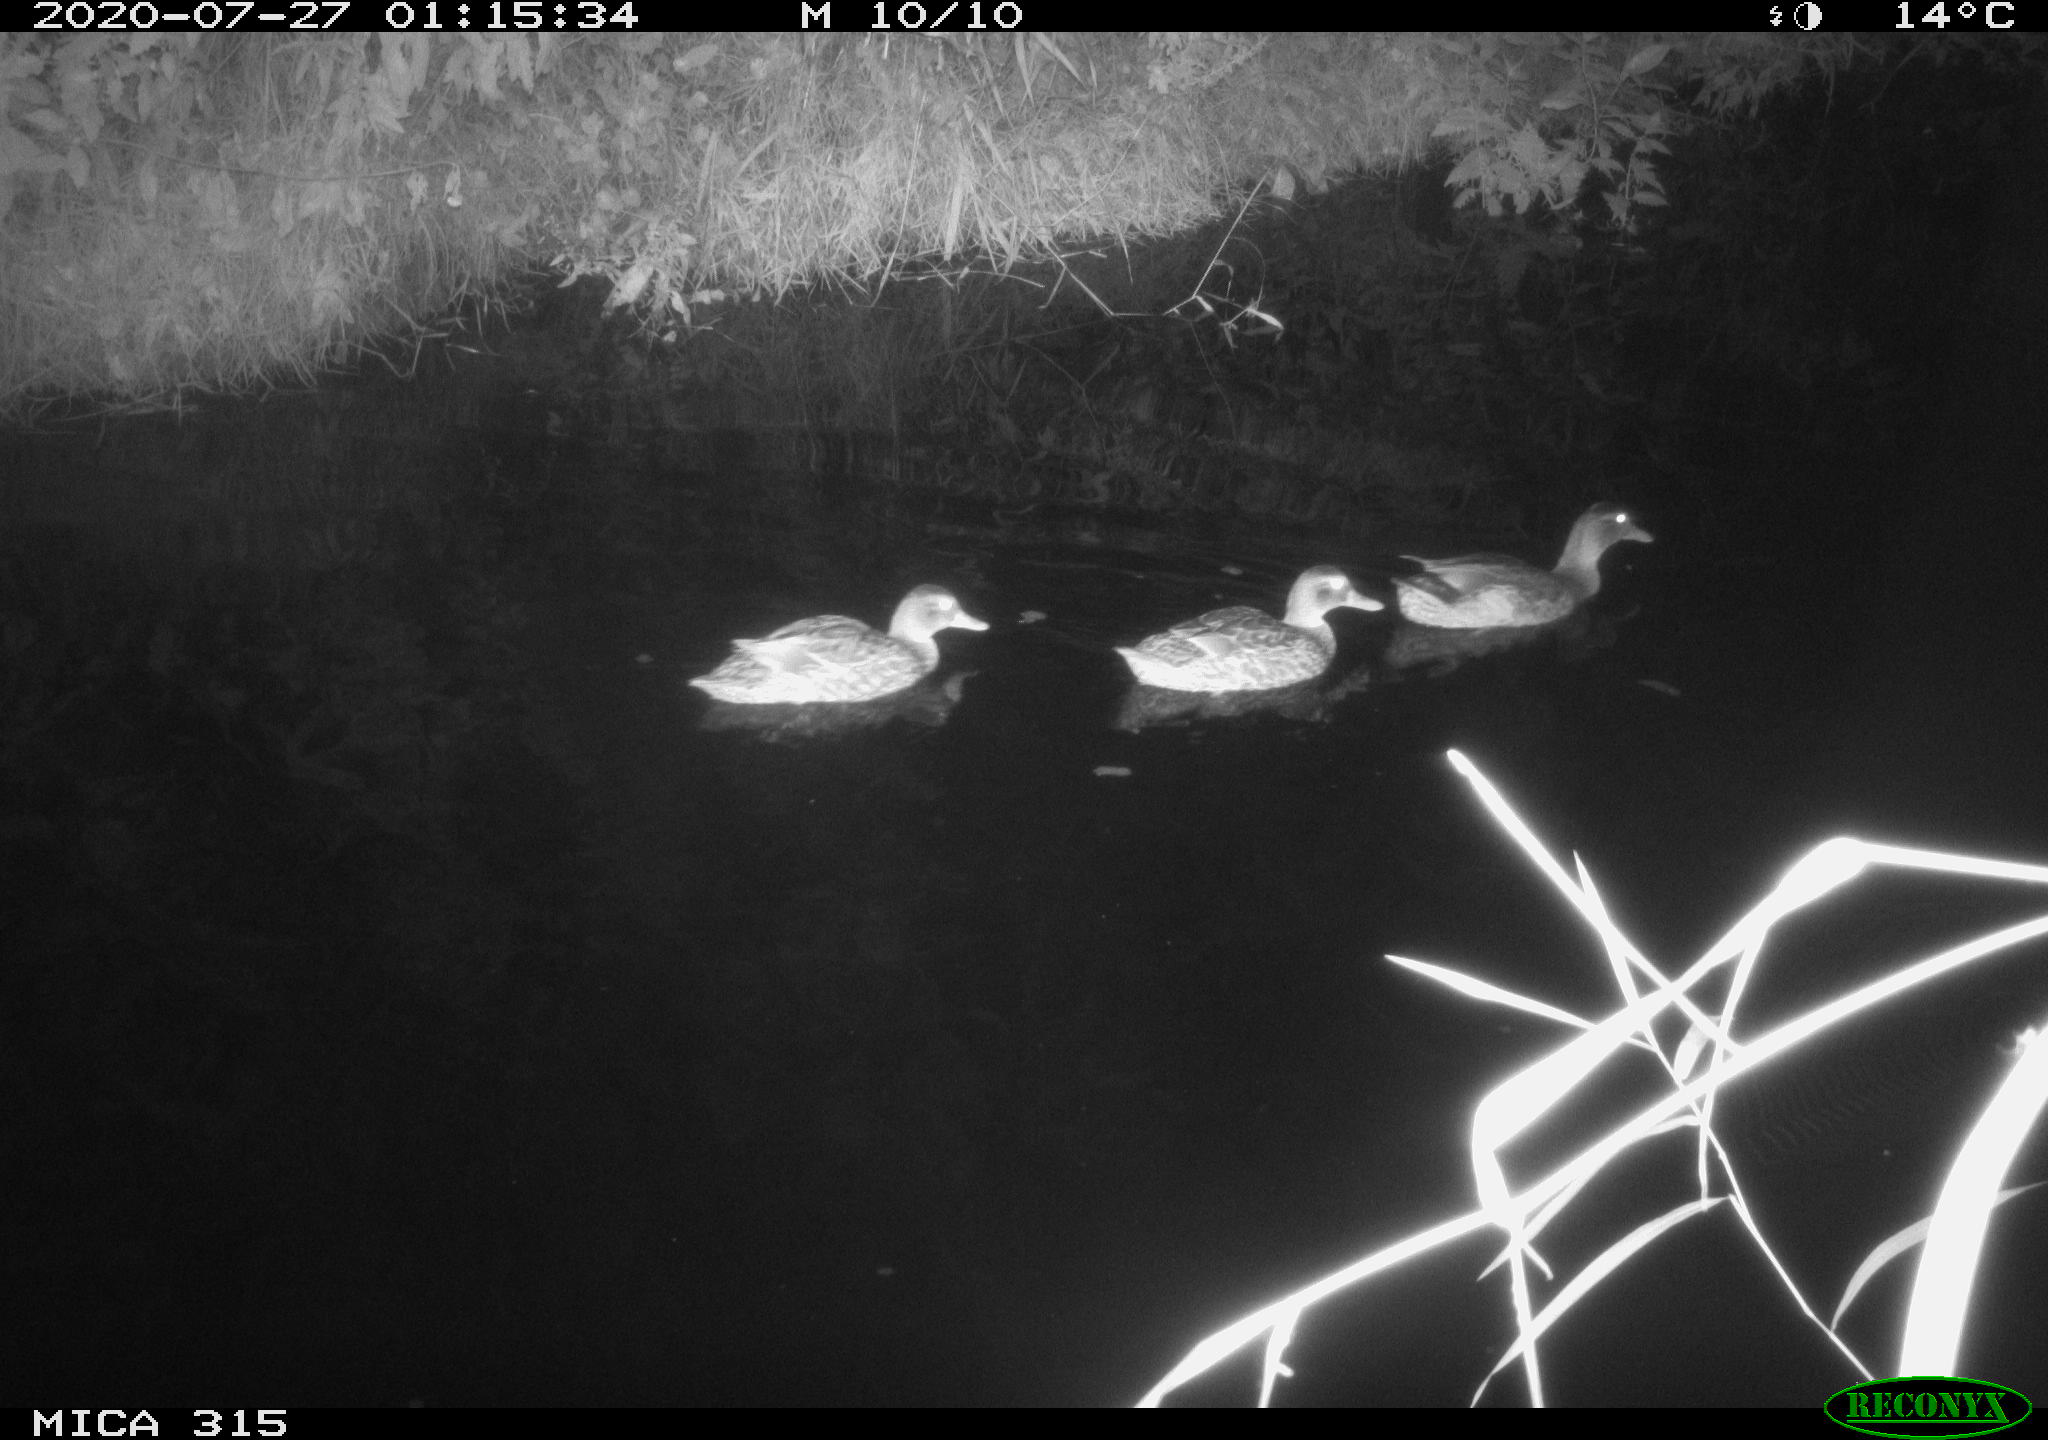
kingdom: Animalia
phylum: Chordata
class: Aves
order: Anseriformes
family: Anatidae
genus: Anas
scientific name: Anas platyrhynchos
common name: Mallard
